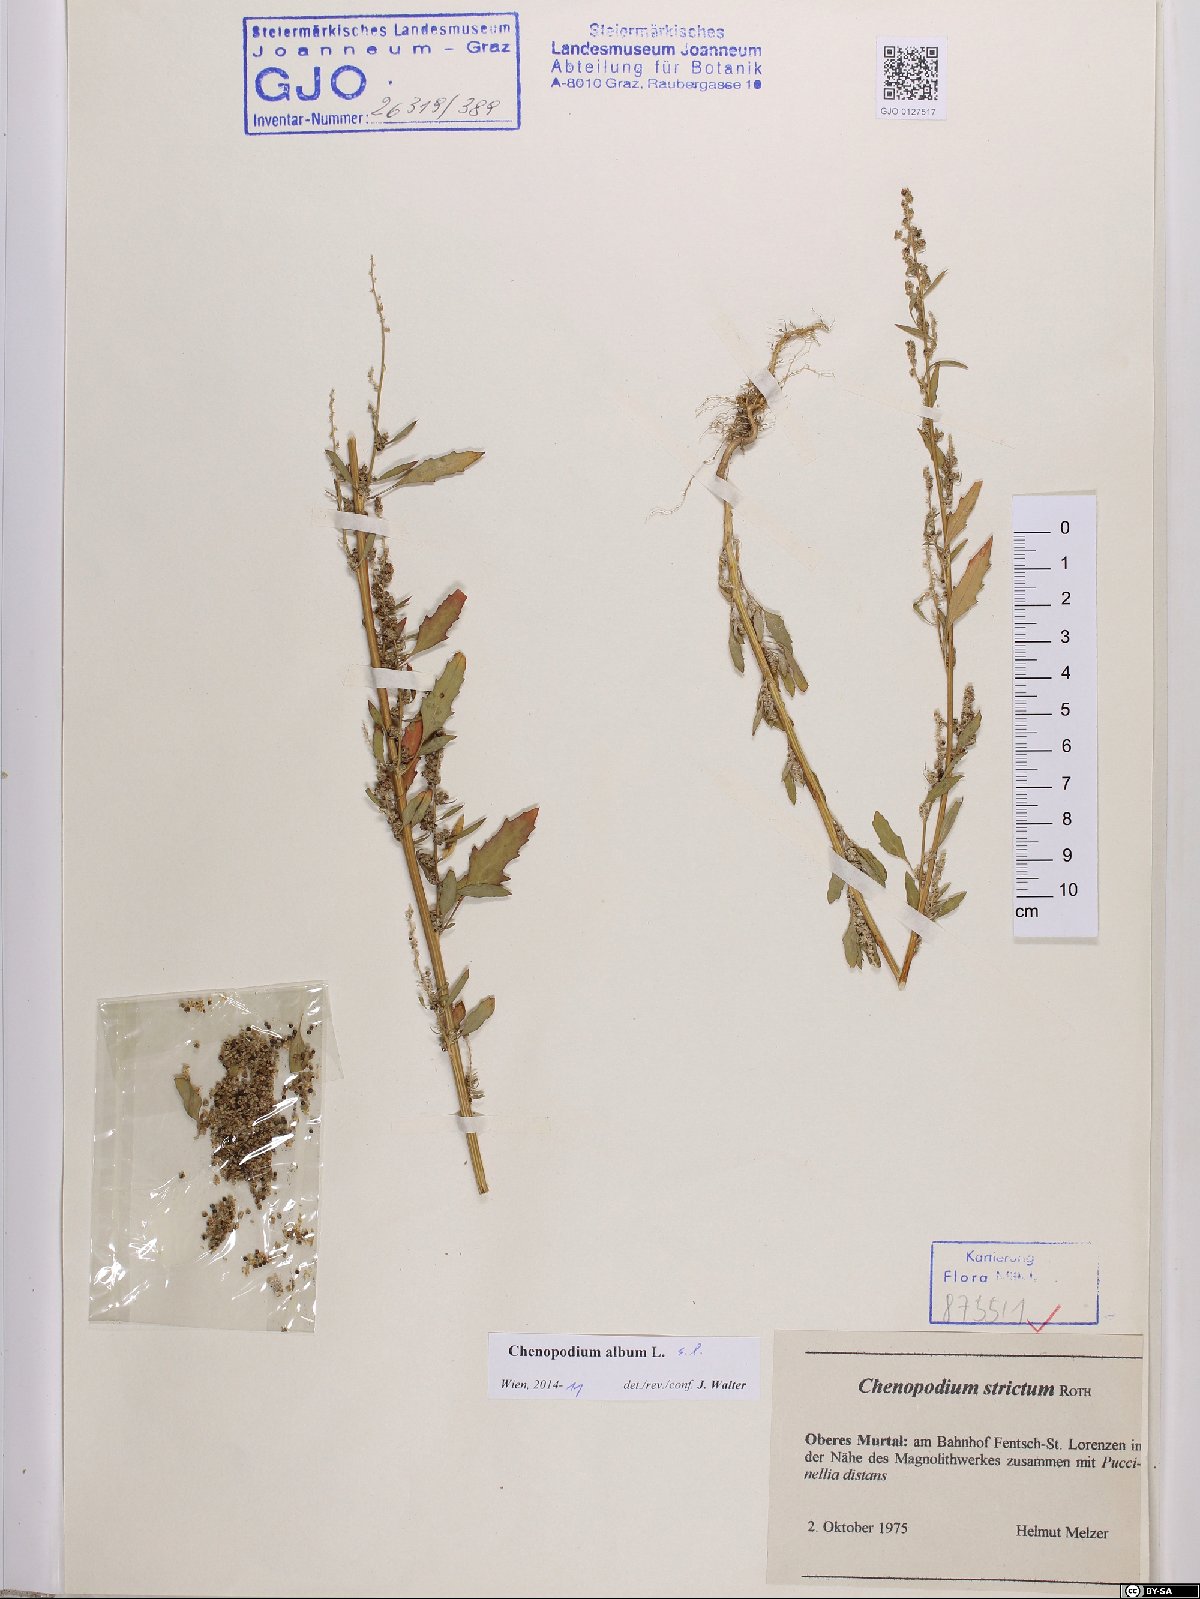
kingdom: Plantae
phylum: Tracheophyta
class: Magnoliopsida
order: Caryophyllales
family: Amaranthaceae
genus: Chenopodium
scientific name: Chenopodium album
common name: Fat-hen
